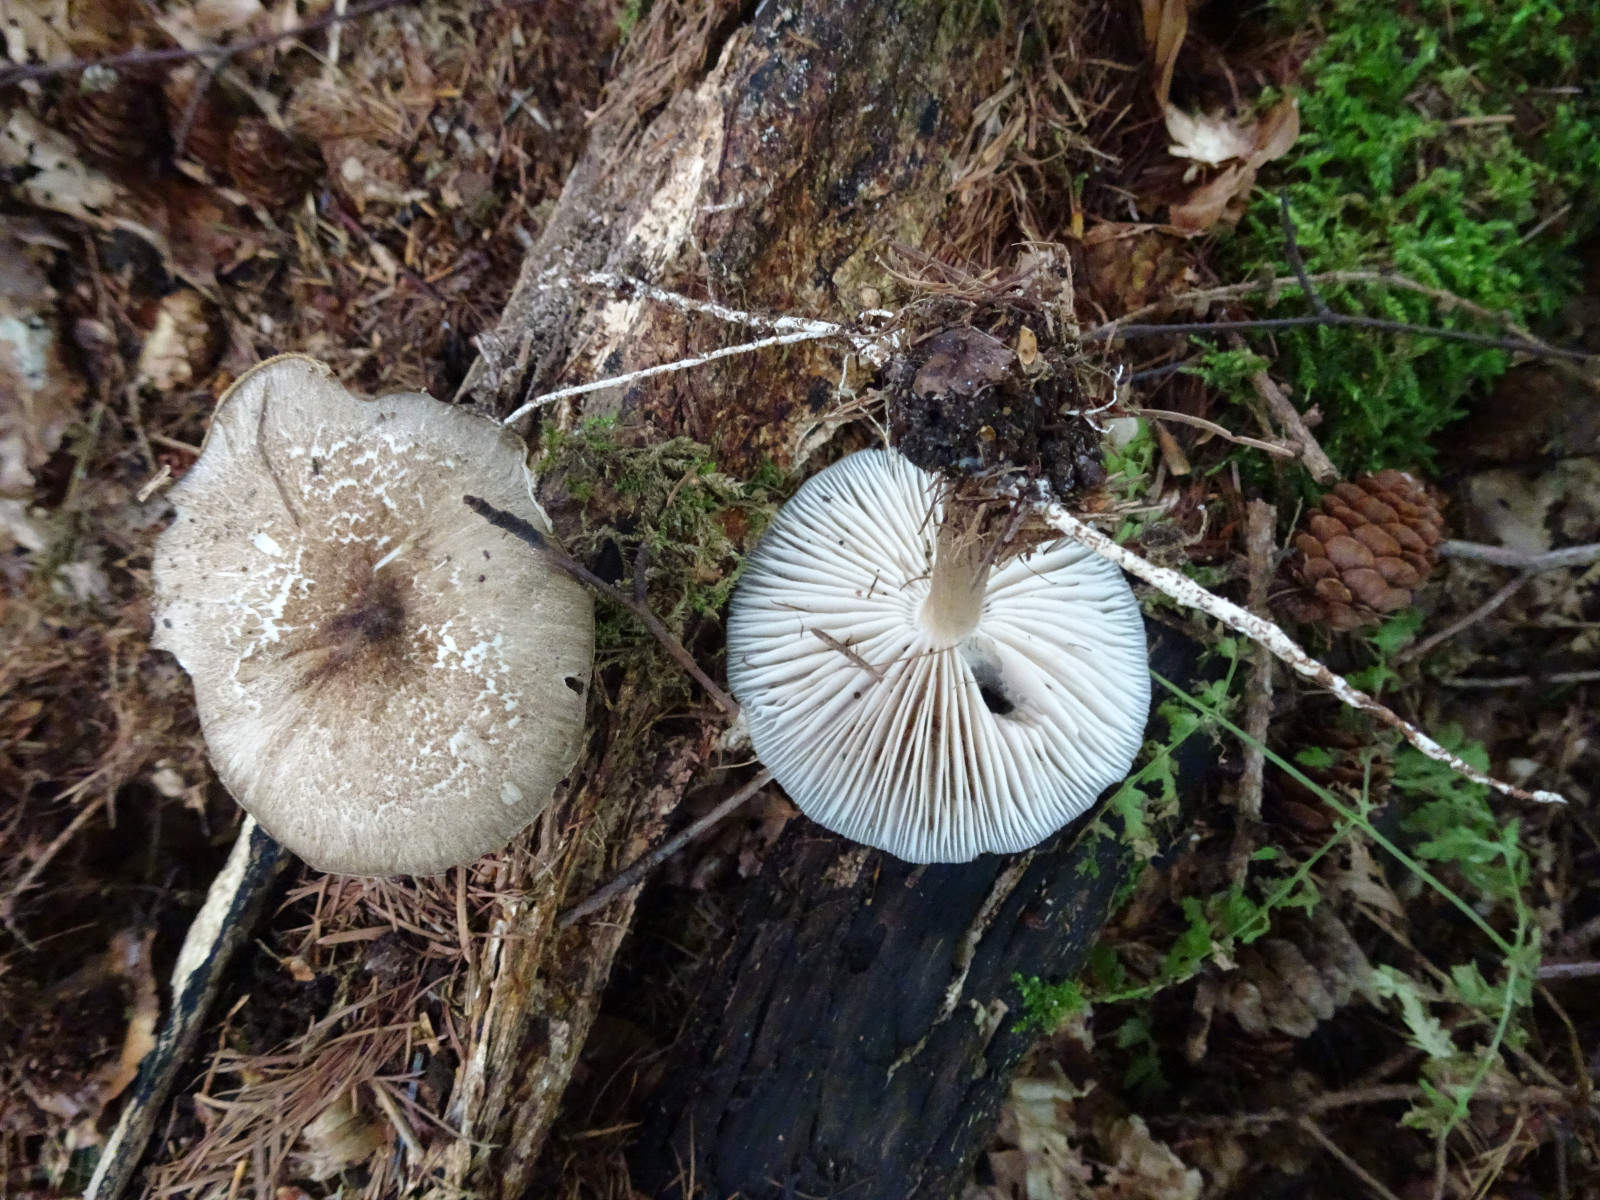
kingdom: Fungi
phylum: Basidiomycota
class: Agaricomycetes
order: Agaricales
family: Tricholomataceae
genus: Megacollybia
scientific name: Megacollybia platyphylla
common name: bredbladet væbnerhat
